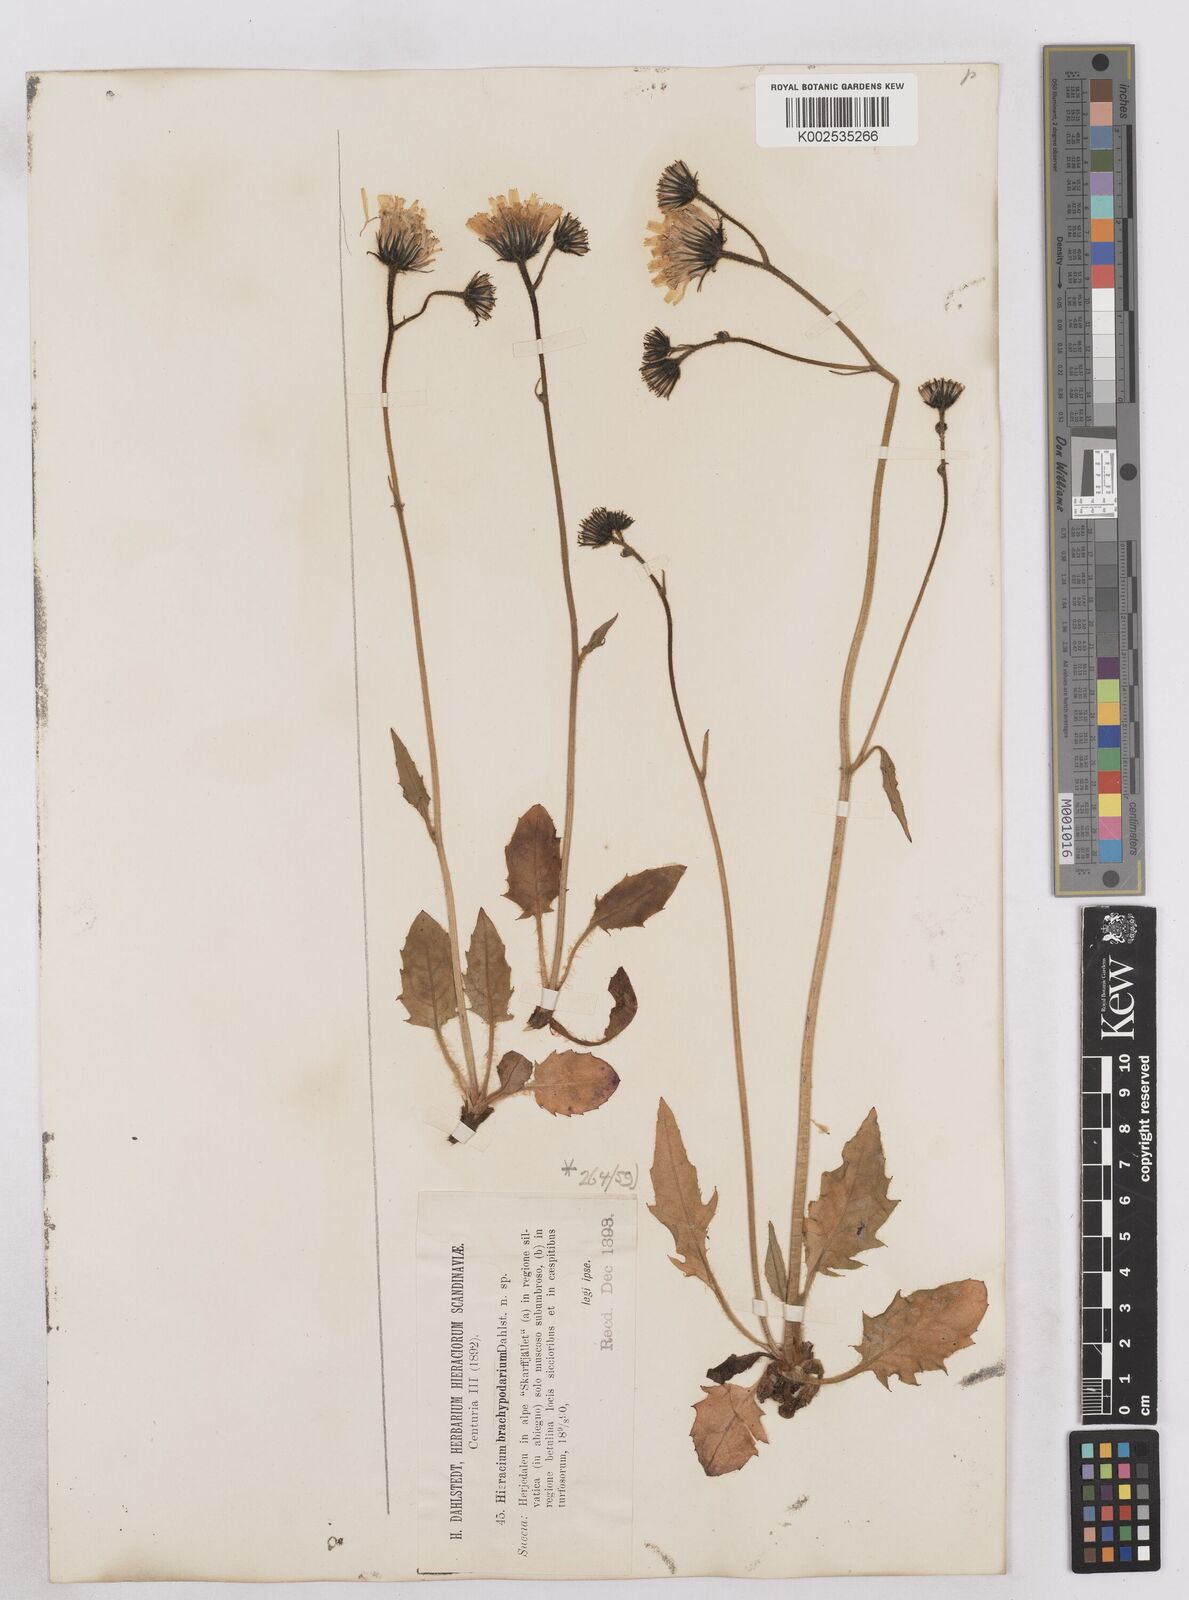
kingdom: Plantae
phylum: Tracheophyta
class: Magnoliopsida
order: Asterales
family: Asteraceae
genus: Hieracium
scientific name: Hieracium brachypodarium
